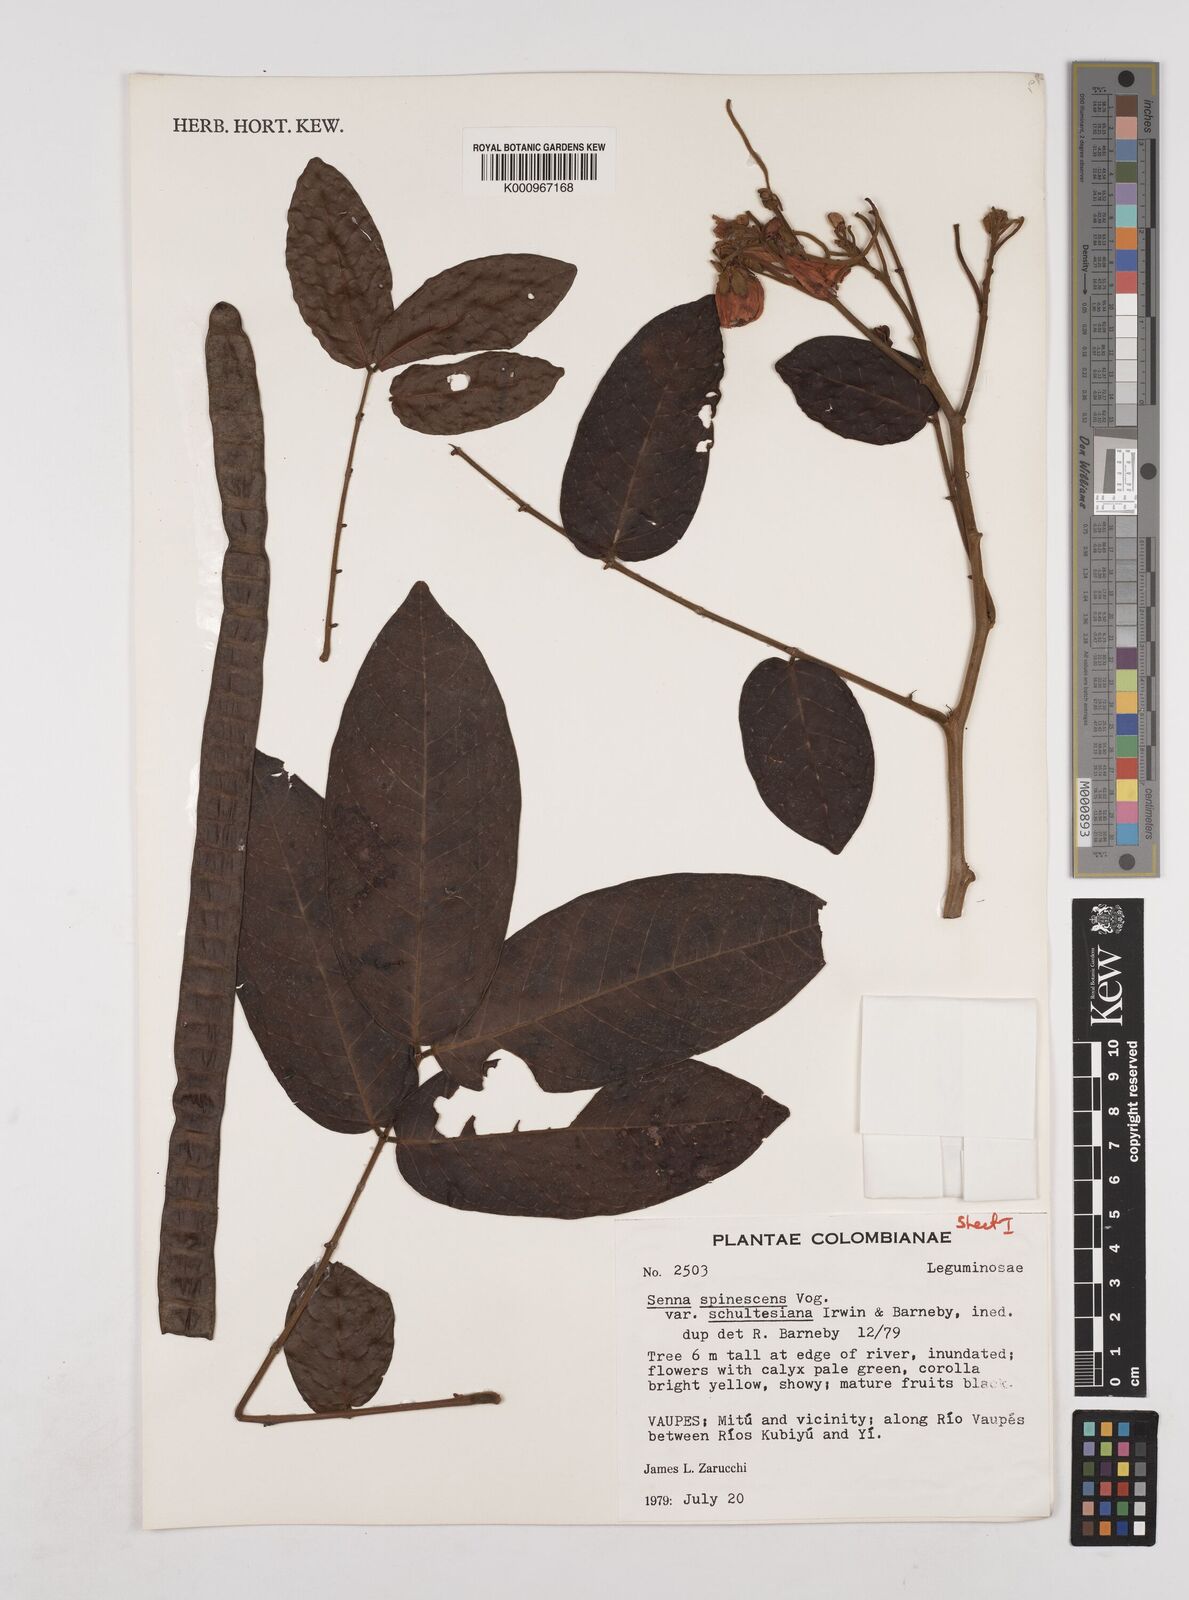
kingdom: Plantae
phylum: Tracheophyta
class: Magnoliopsida
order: Fabales
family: Fabaceae
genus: Senna
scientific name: Senna spinescens
